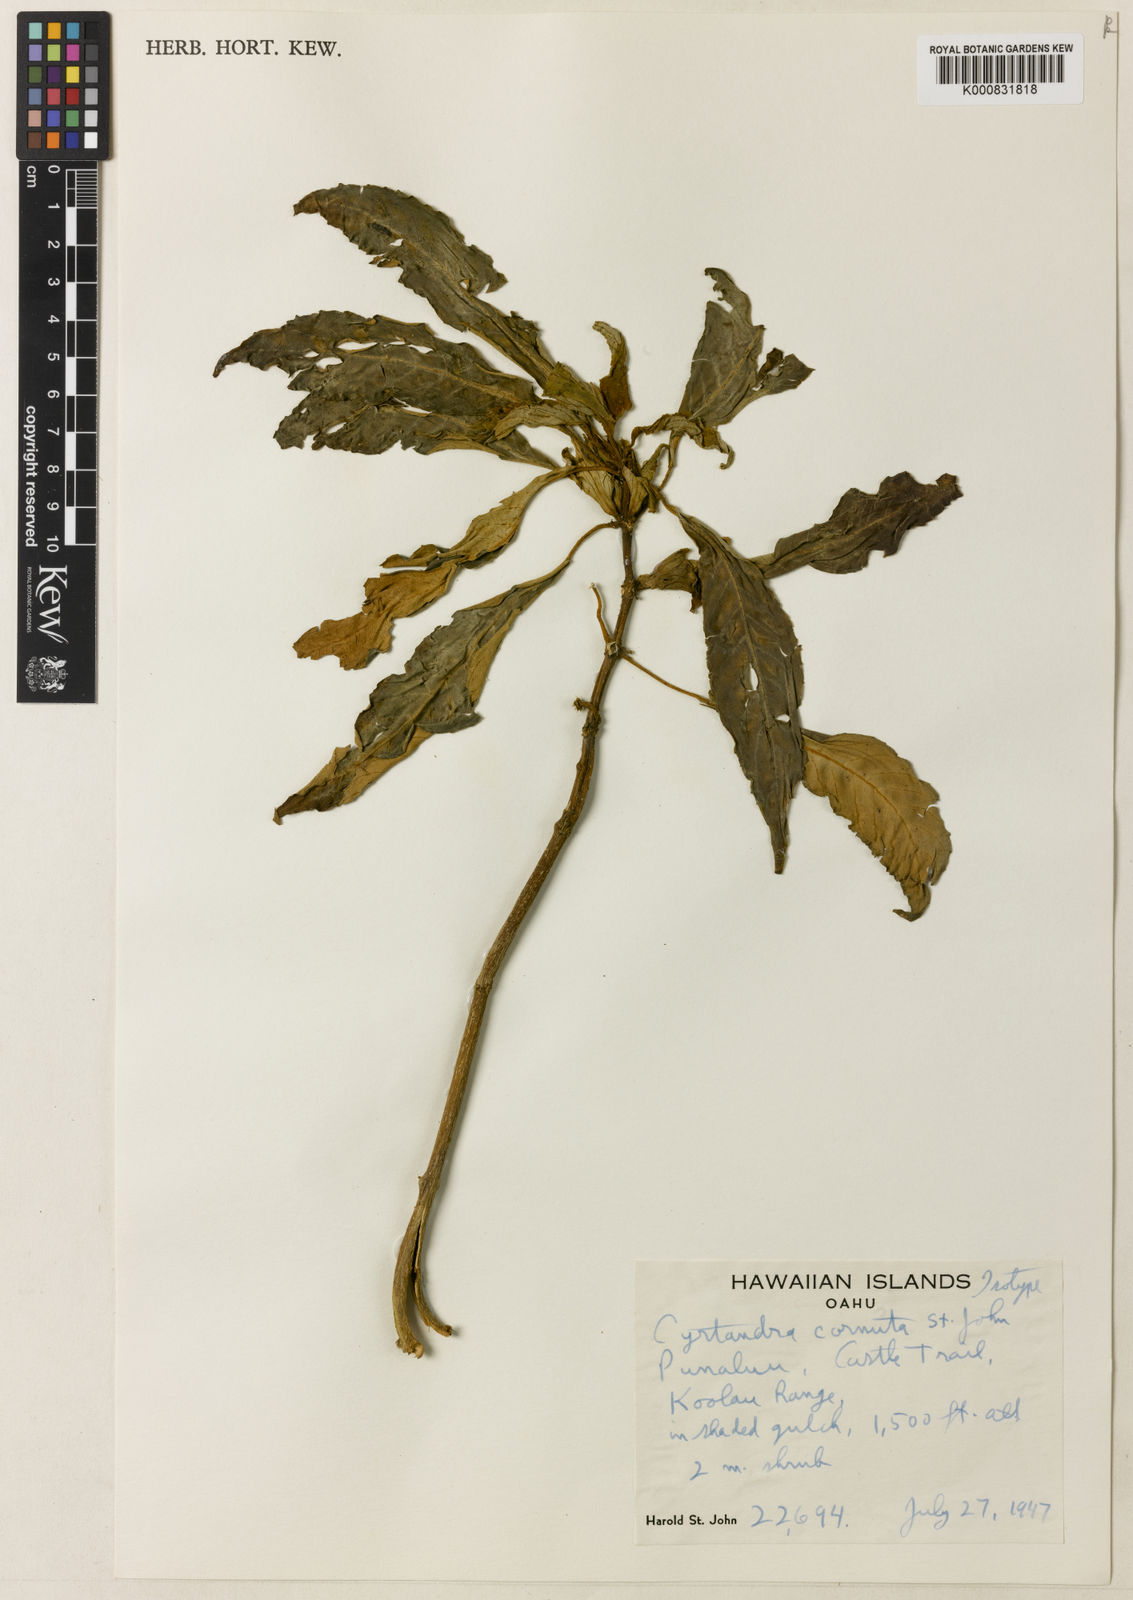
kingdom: Plantae
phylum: Tracheophyta
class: Magnoliopsida
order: Lamiales
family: Gesneriaceae
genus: Cyrtandra
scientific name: Cyrtandra calpidicarpa
